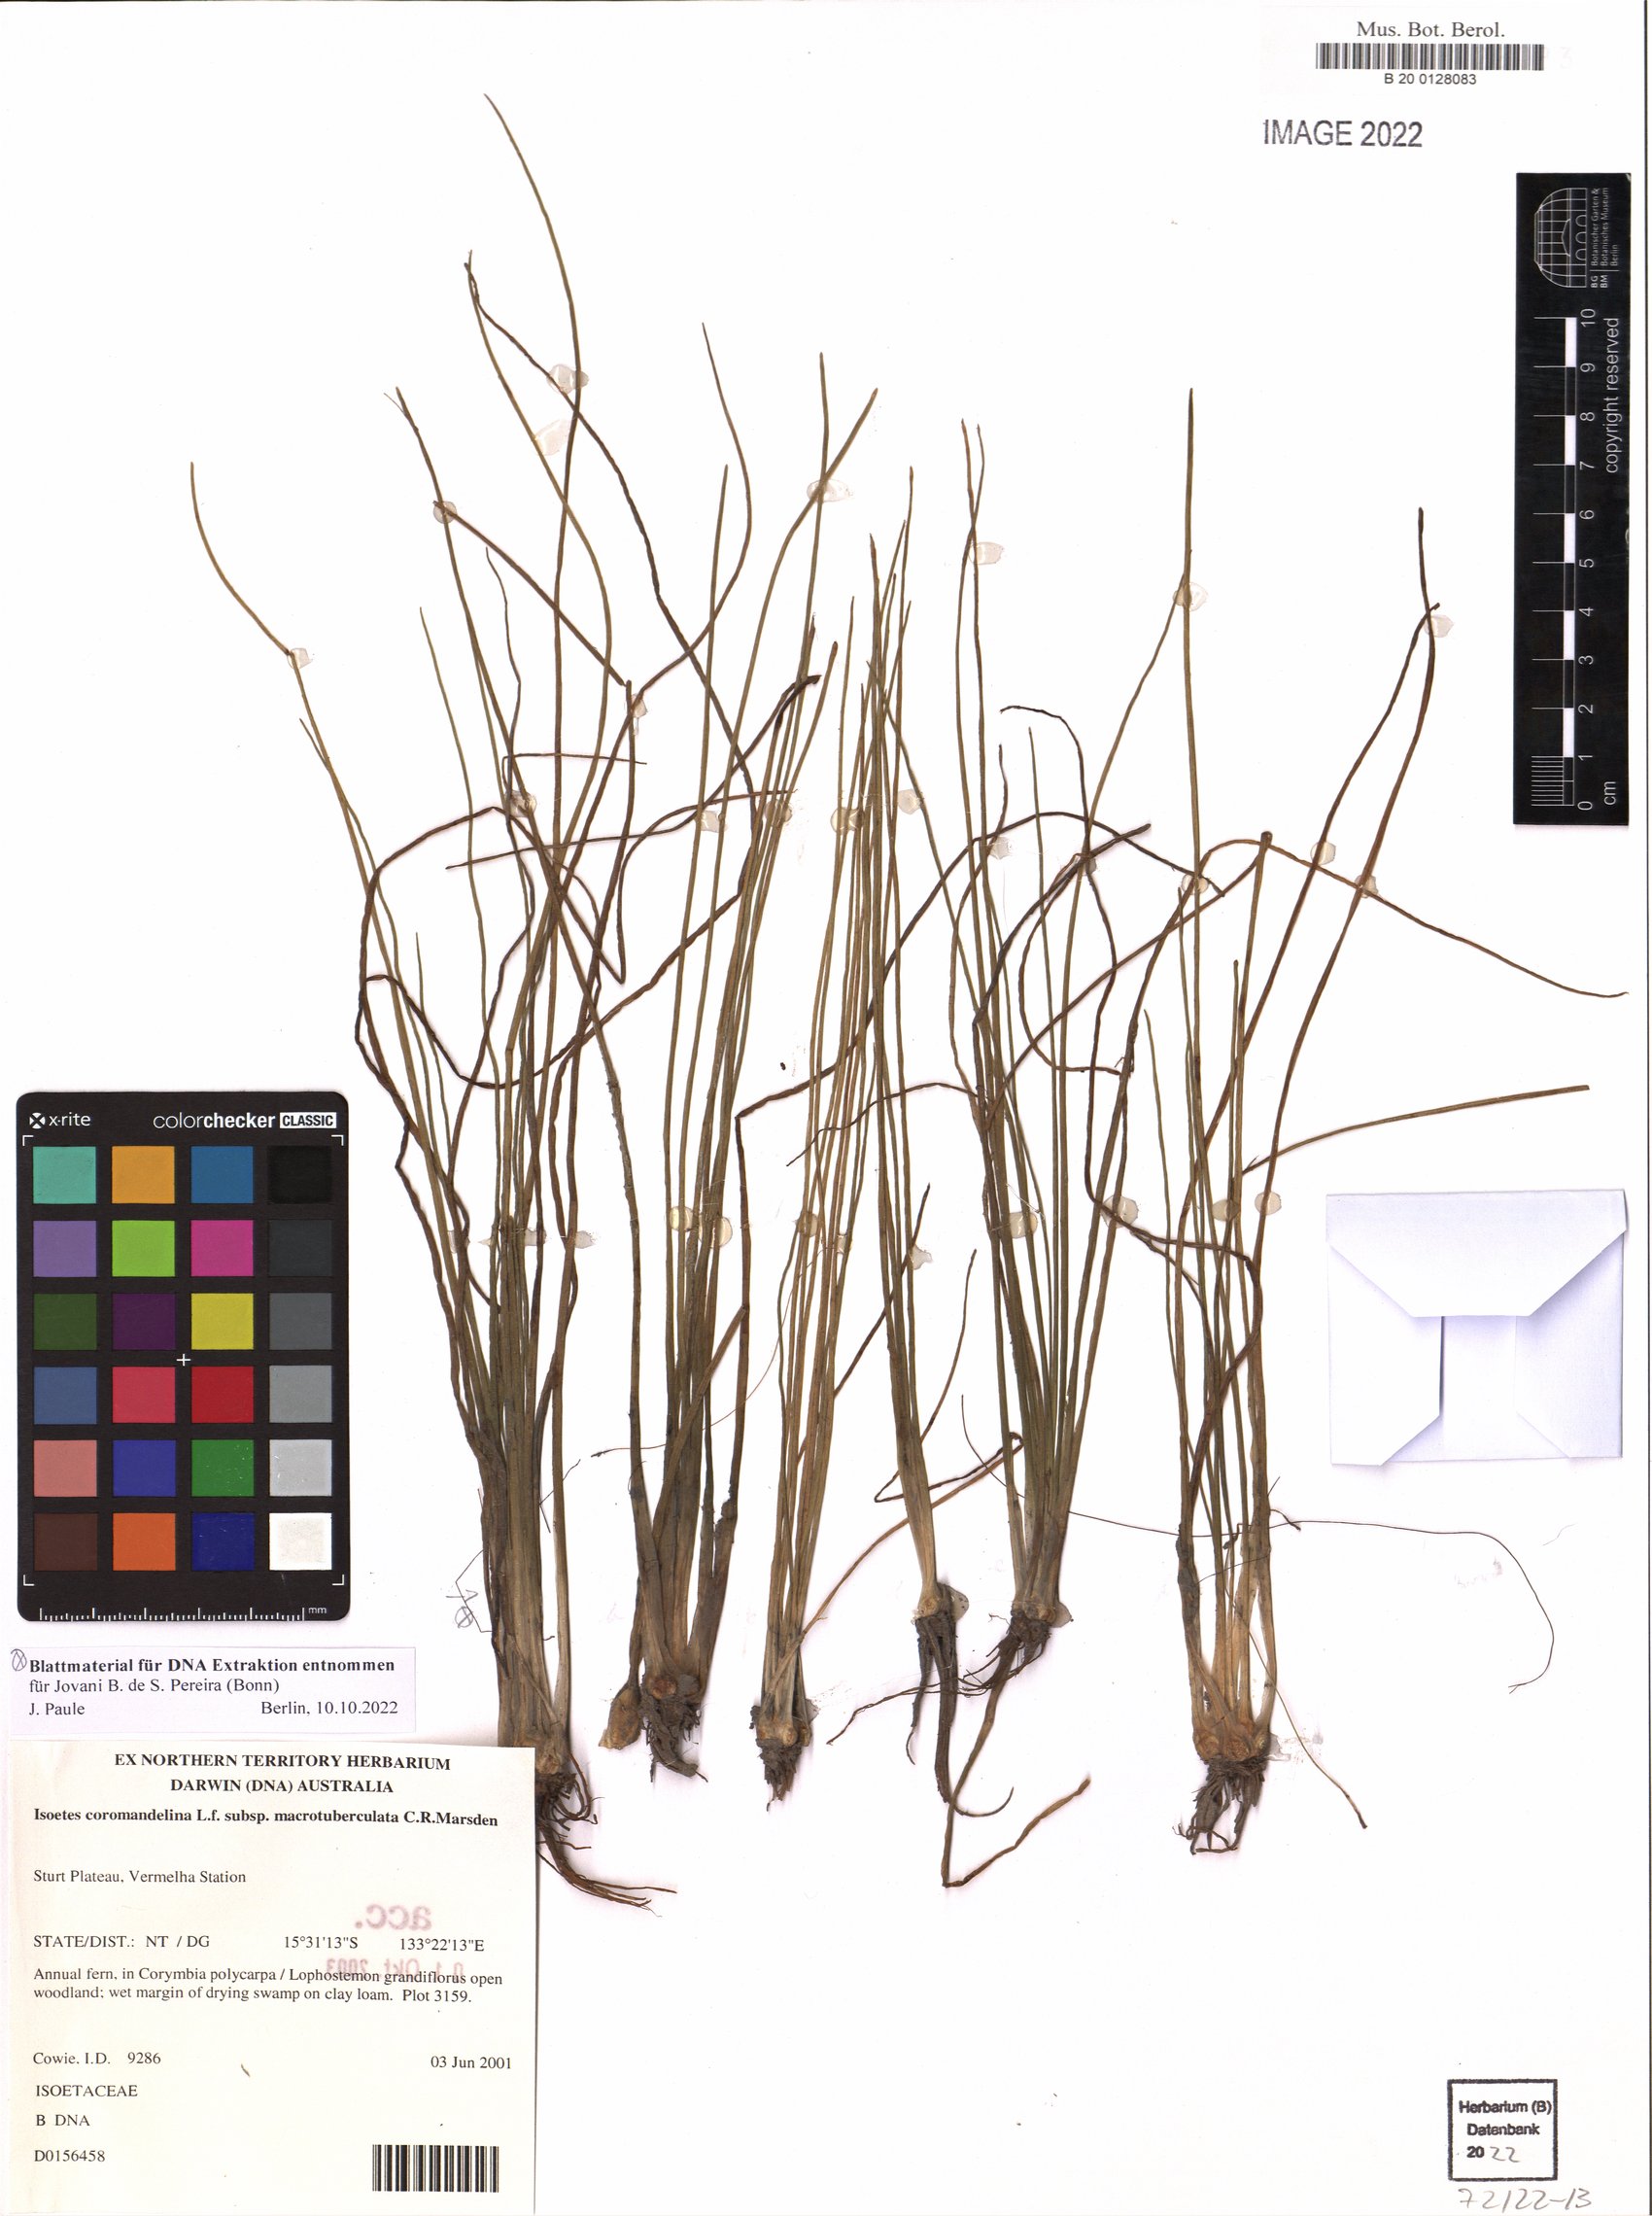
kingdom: Plantae
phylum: Tracheophyta
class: Lycopodiopsida
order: Isoetales
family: Isoetaceae
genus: Isoetes
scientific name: Isoetes coromandelina
